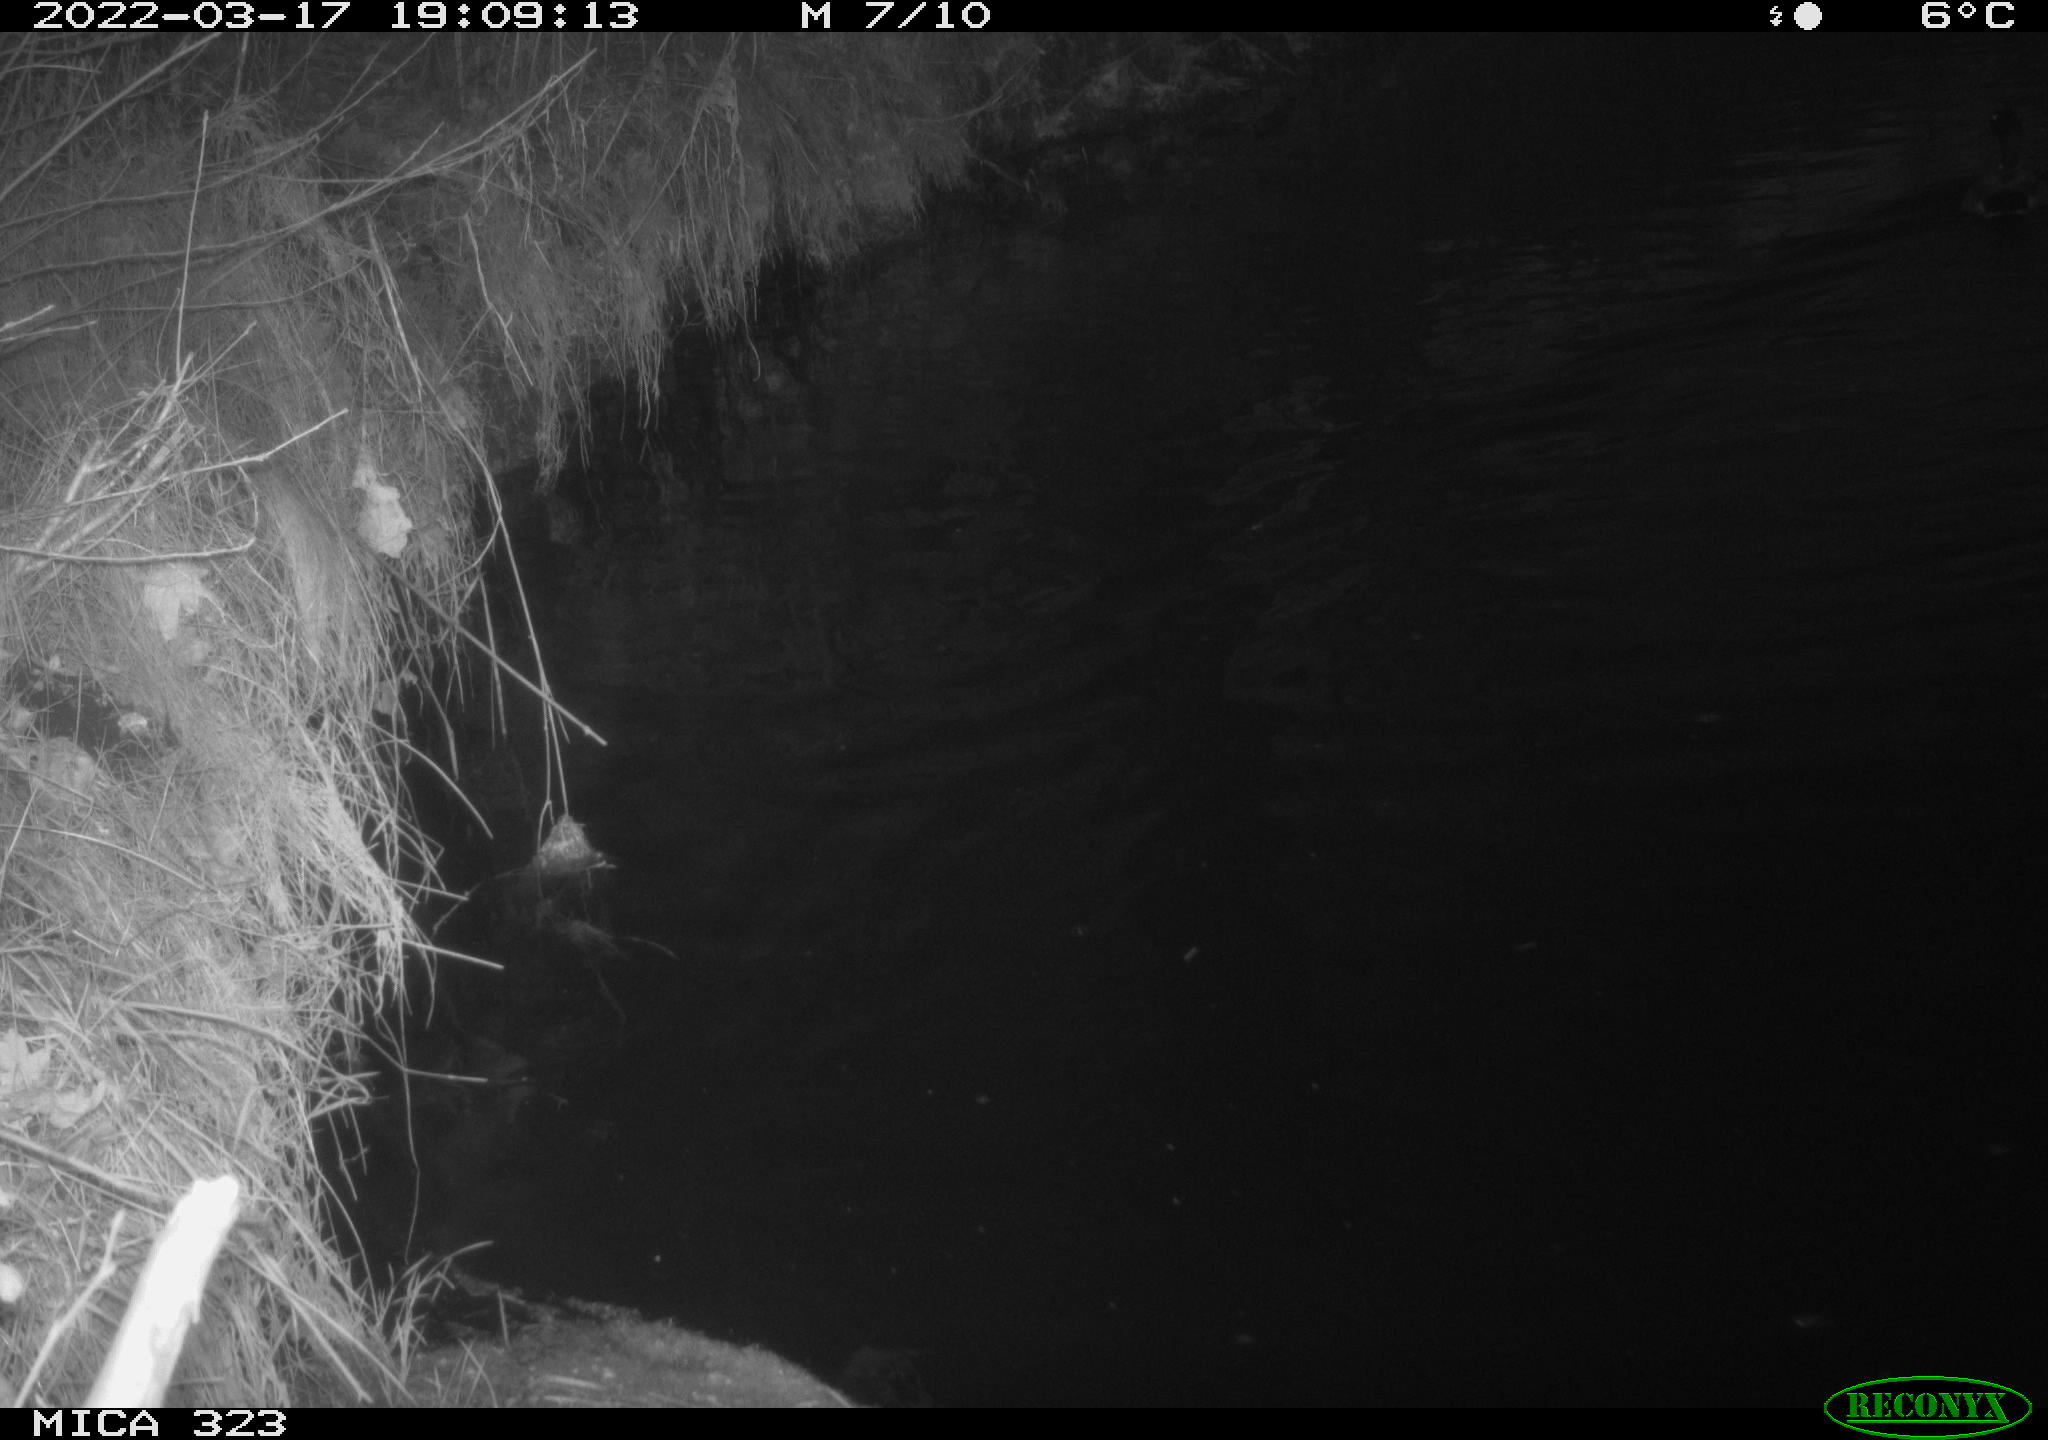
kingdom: Animalia
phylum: Chordata
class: Aves
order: Anseriformes
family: Anatidae
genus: Anas
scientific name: Anas platyrhynchos
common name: Mallard
